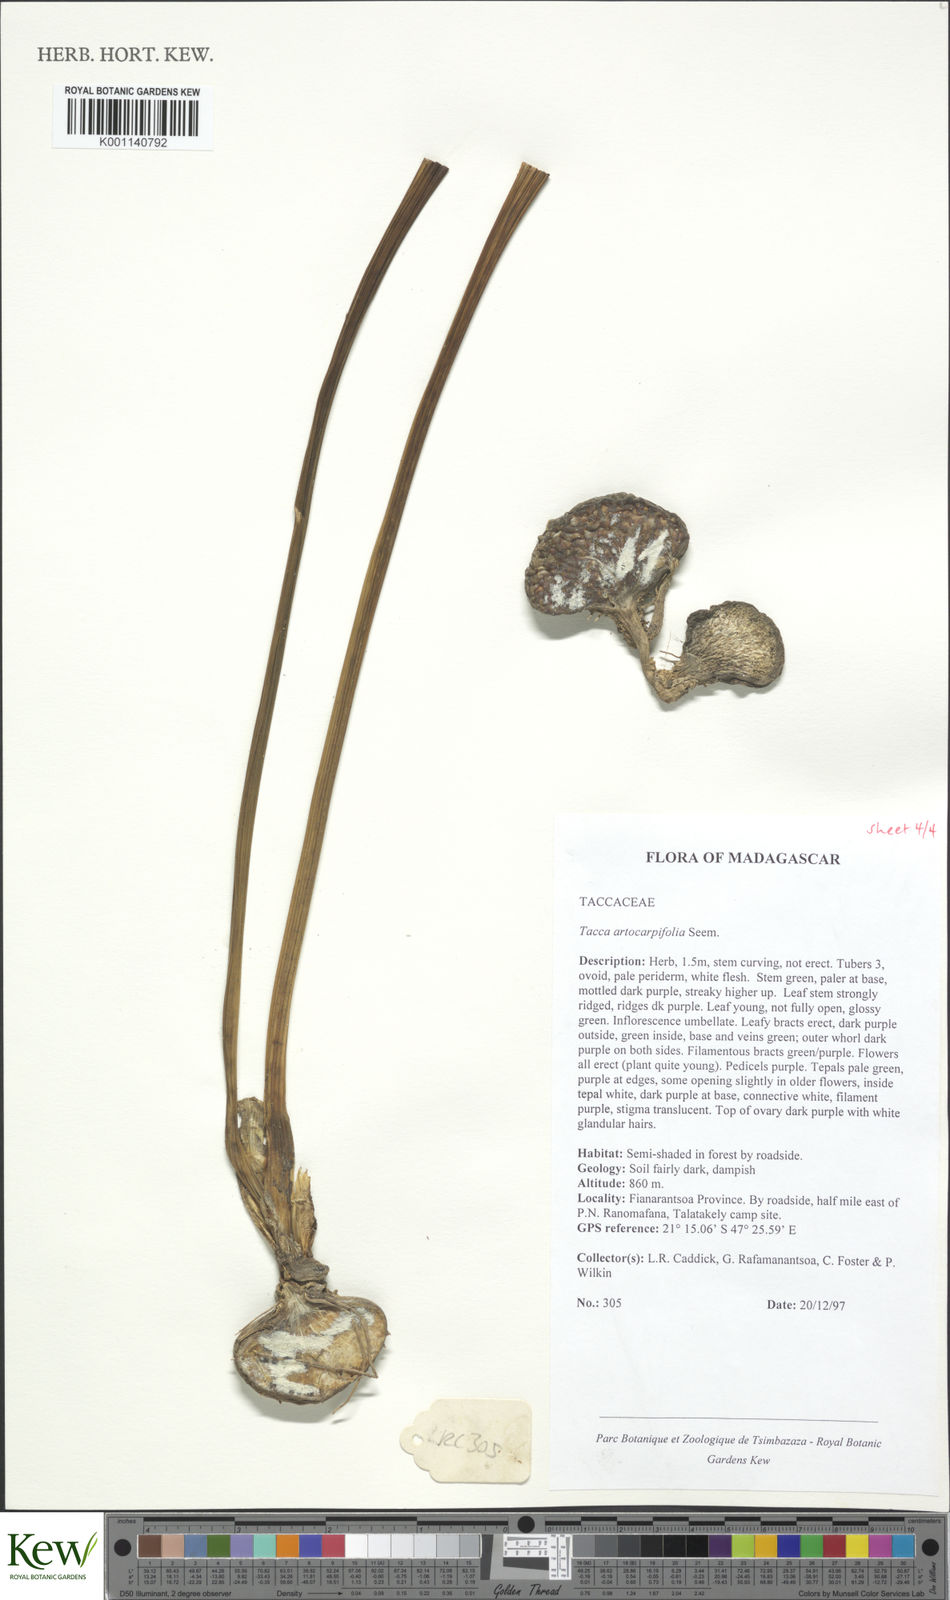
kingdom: Plantae
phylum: Tracheophyta
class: Liliopsida
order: Dioscoreales
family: Dioscoreaceae
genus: Tacca
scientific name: Tacca leontopetaloides
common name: Arrowroot
